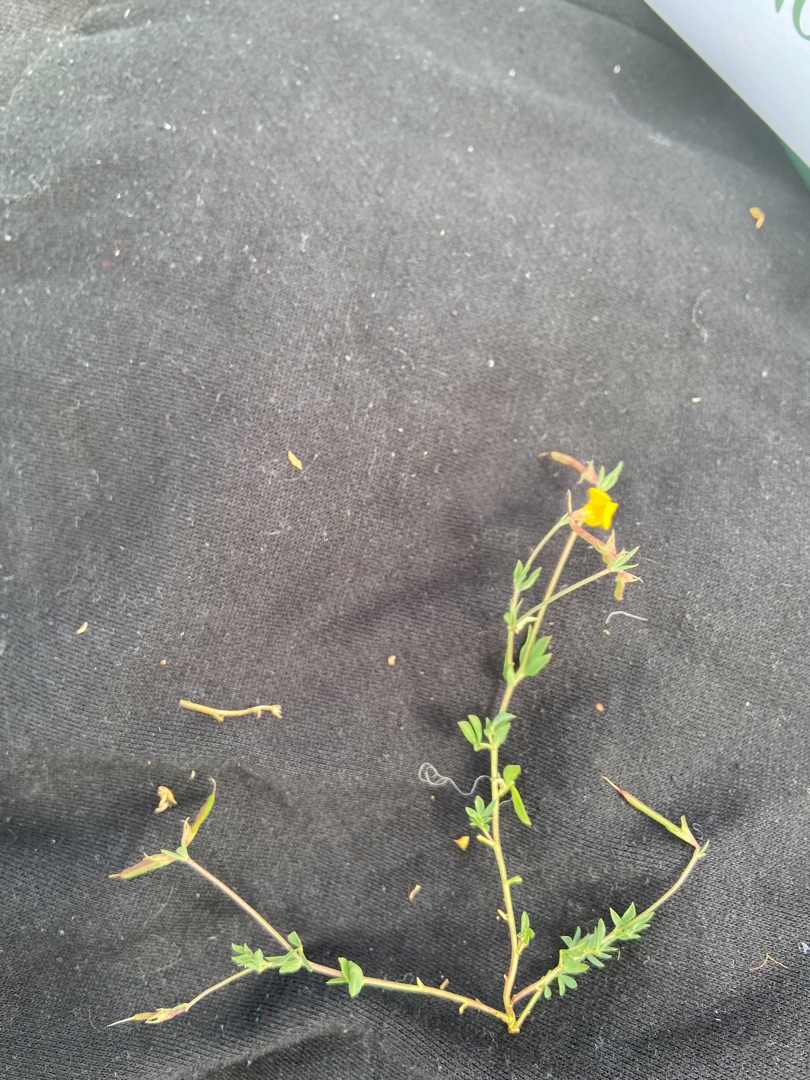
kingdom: Plantae
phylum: Tracheophyta
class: Magnoliopsida
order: Fabales
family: Fabaceae
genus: Lotus
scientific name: Lotus tenuis
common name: Smalbladet kællingetand
